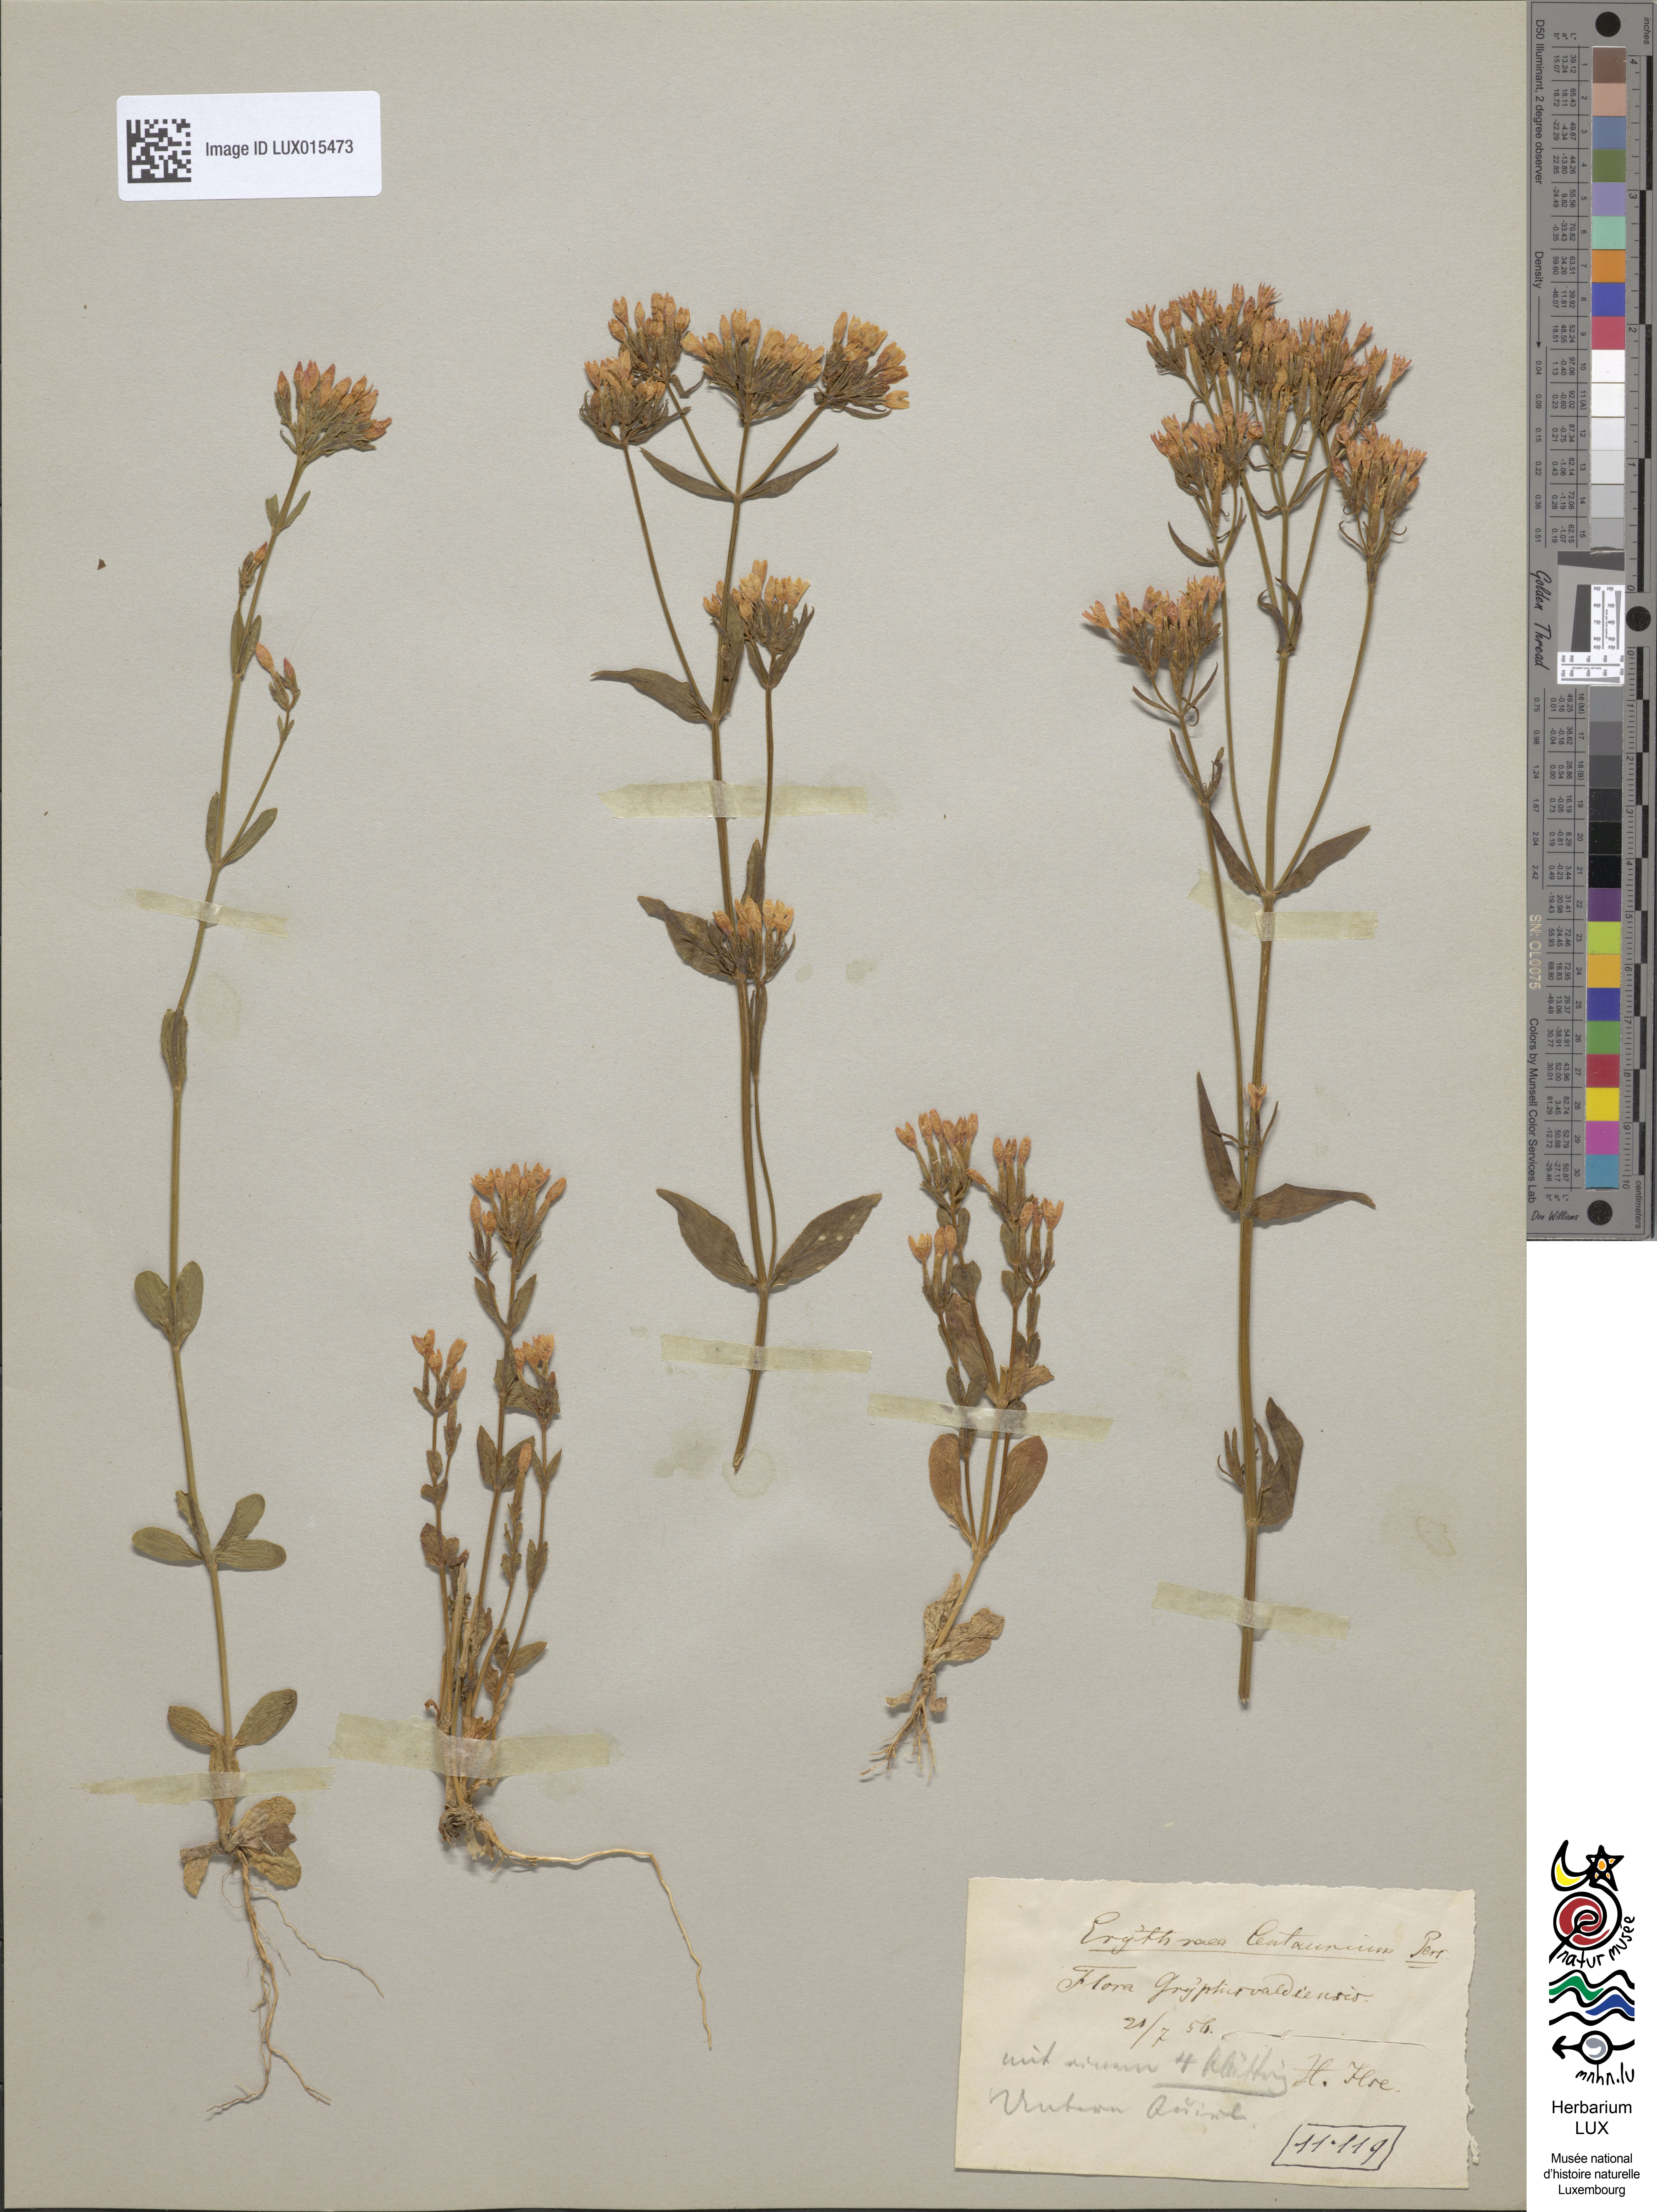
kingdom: Plantae
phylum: Tracheophyta
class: Magnoliopsida
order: Gentianales
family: Gentianaceae
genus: Centaurium
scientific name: Centaurium erythraea
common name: Common centaury
